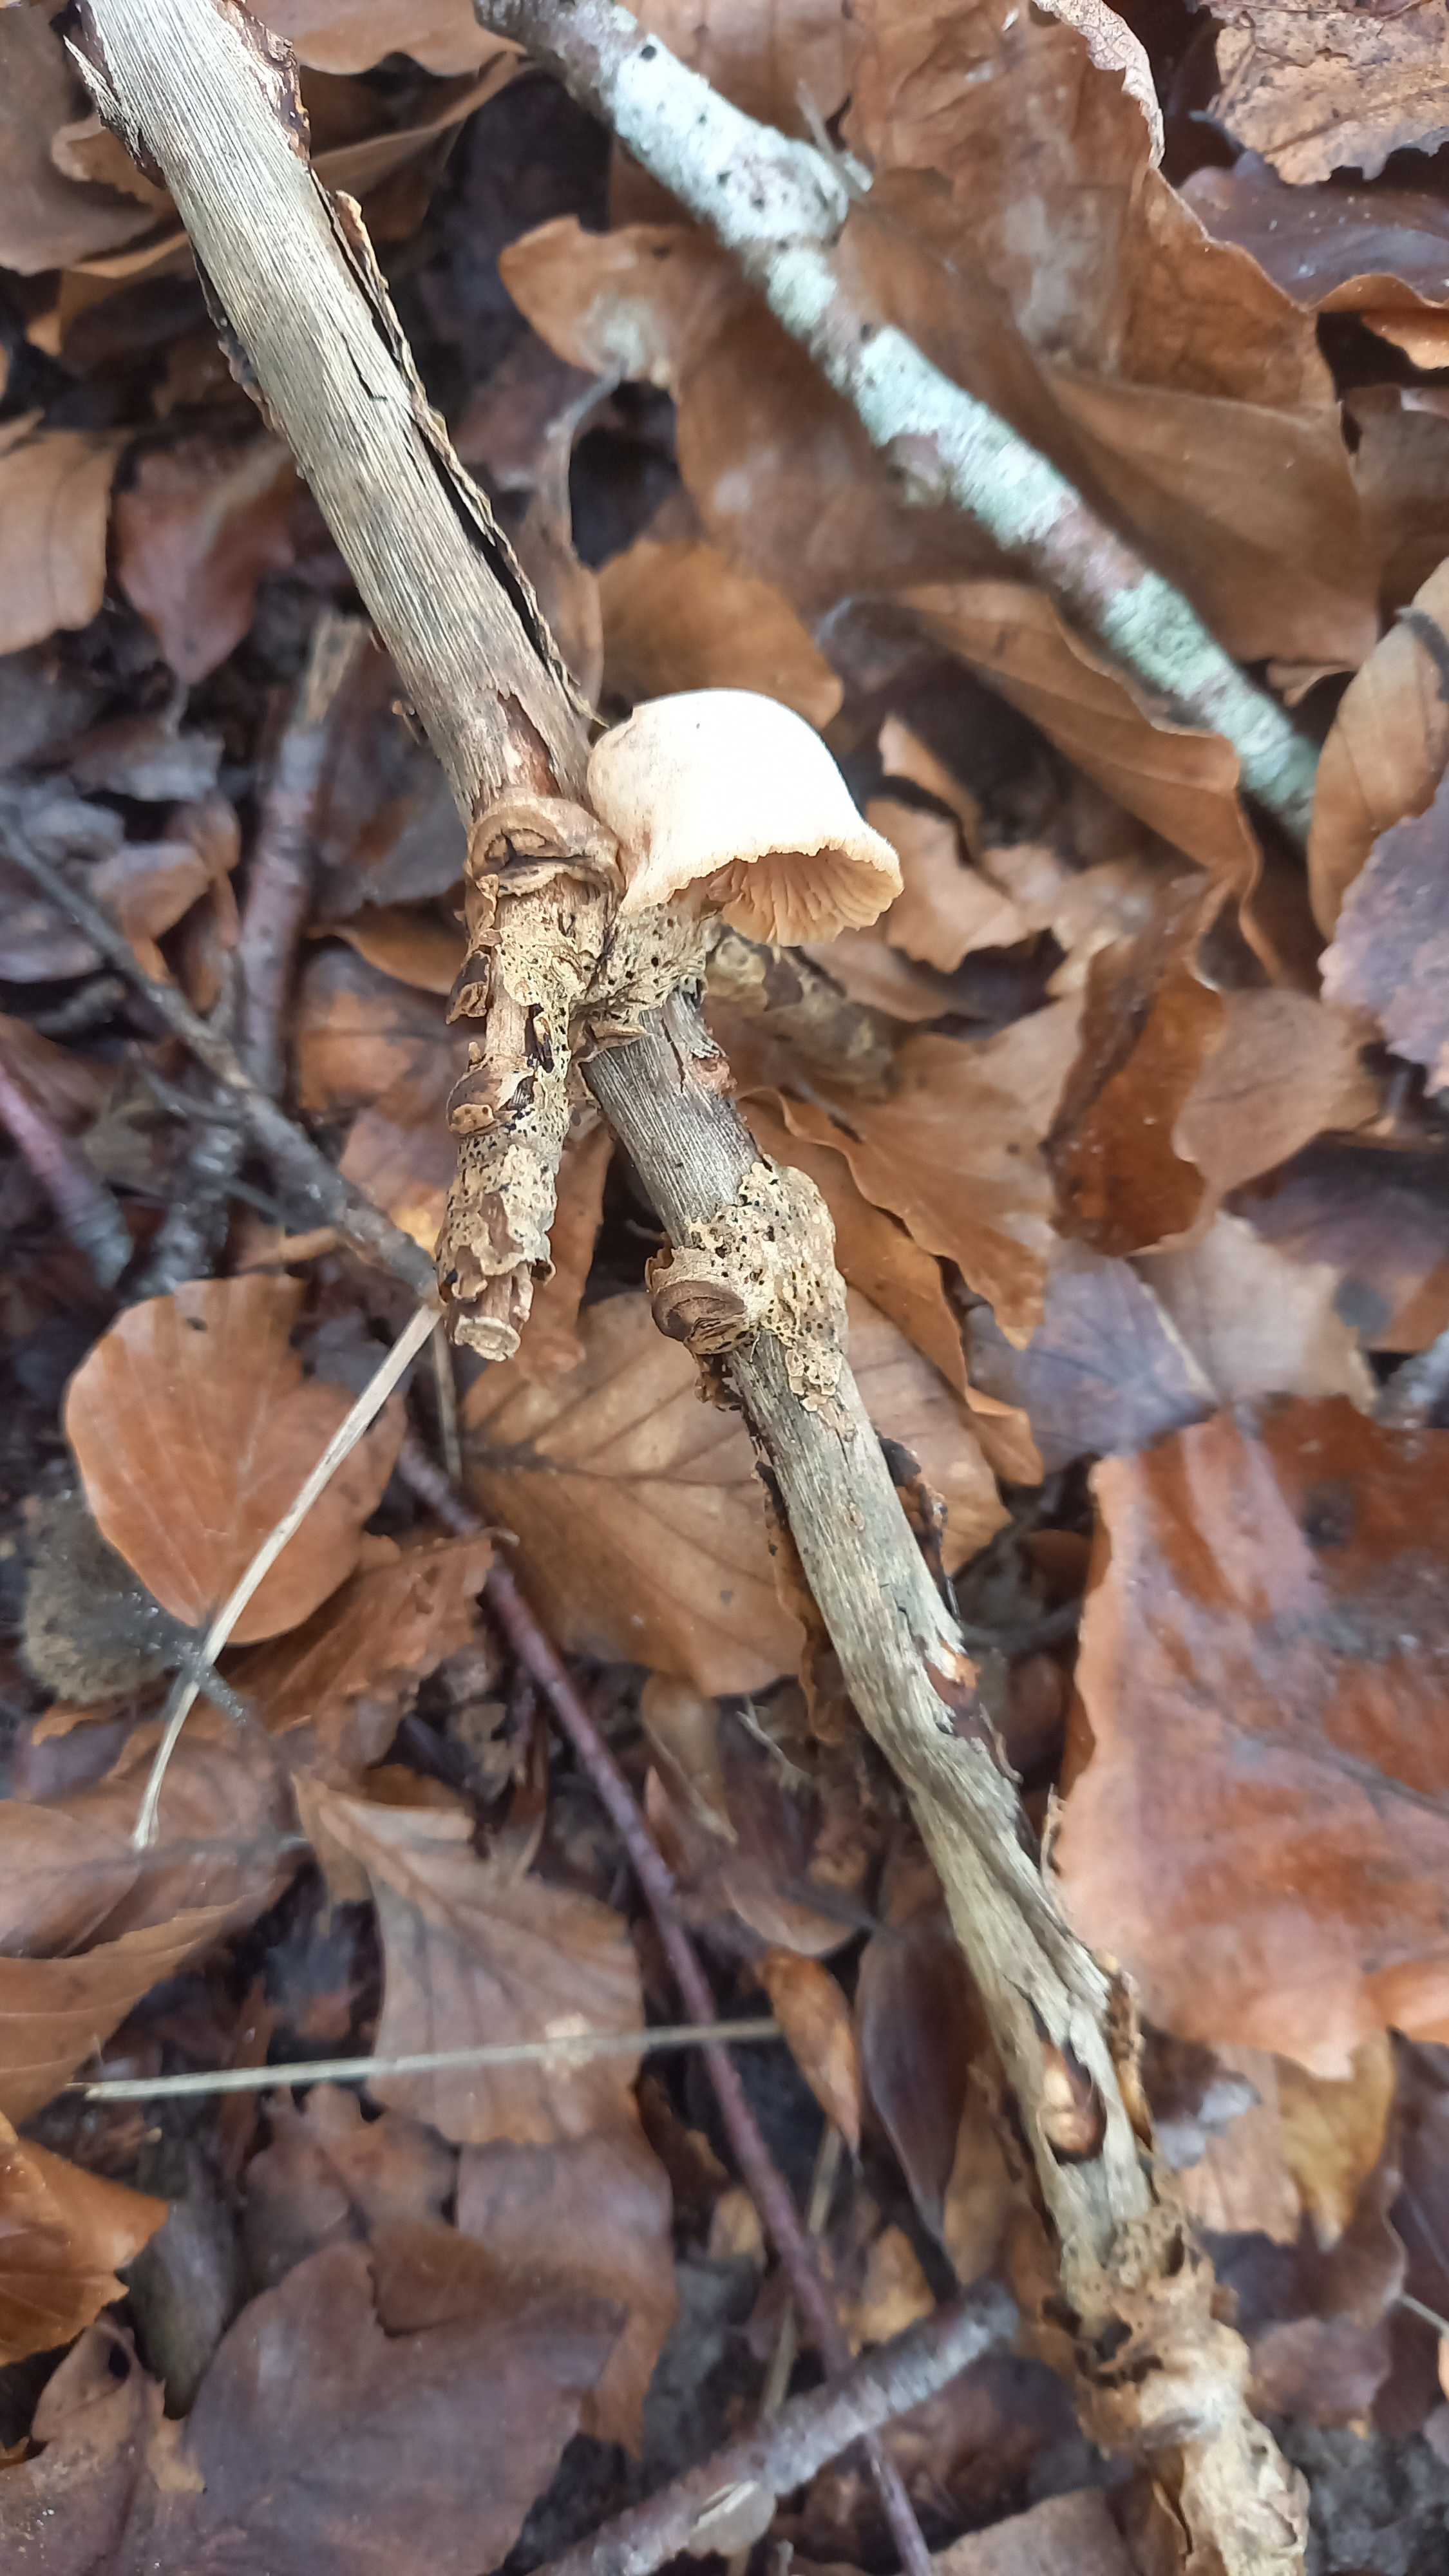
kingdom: Fungi
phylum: Basidiomycota
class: Agaricomycetes
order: Agaricales
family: Crepidotaceae
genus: Crepidotus
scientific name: Crepidotus
